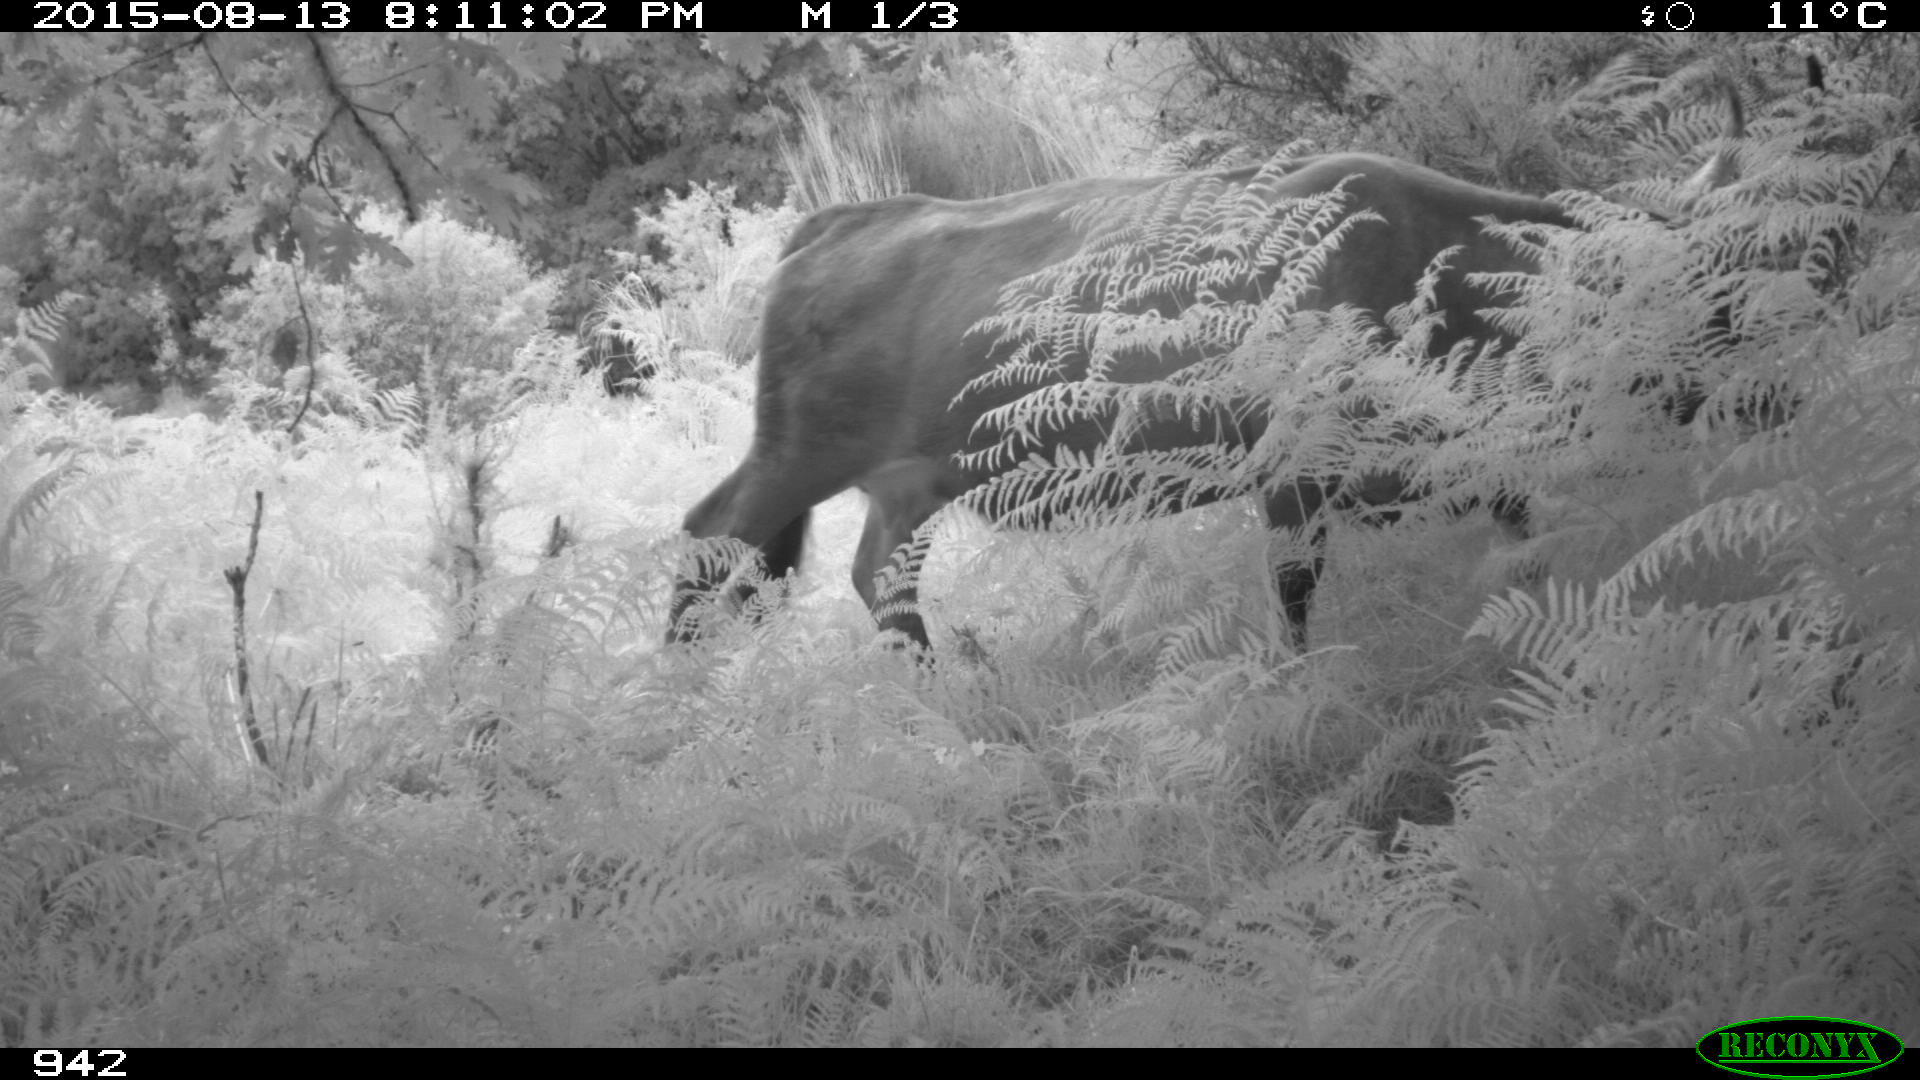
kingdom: Animalia
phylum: Chordata
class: Mammalia
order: Artiodactyla
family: Bovidae
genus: Bos
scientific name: Bos taurus
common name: Domesticated cattle
